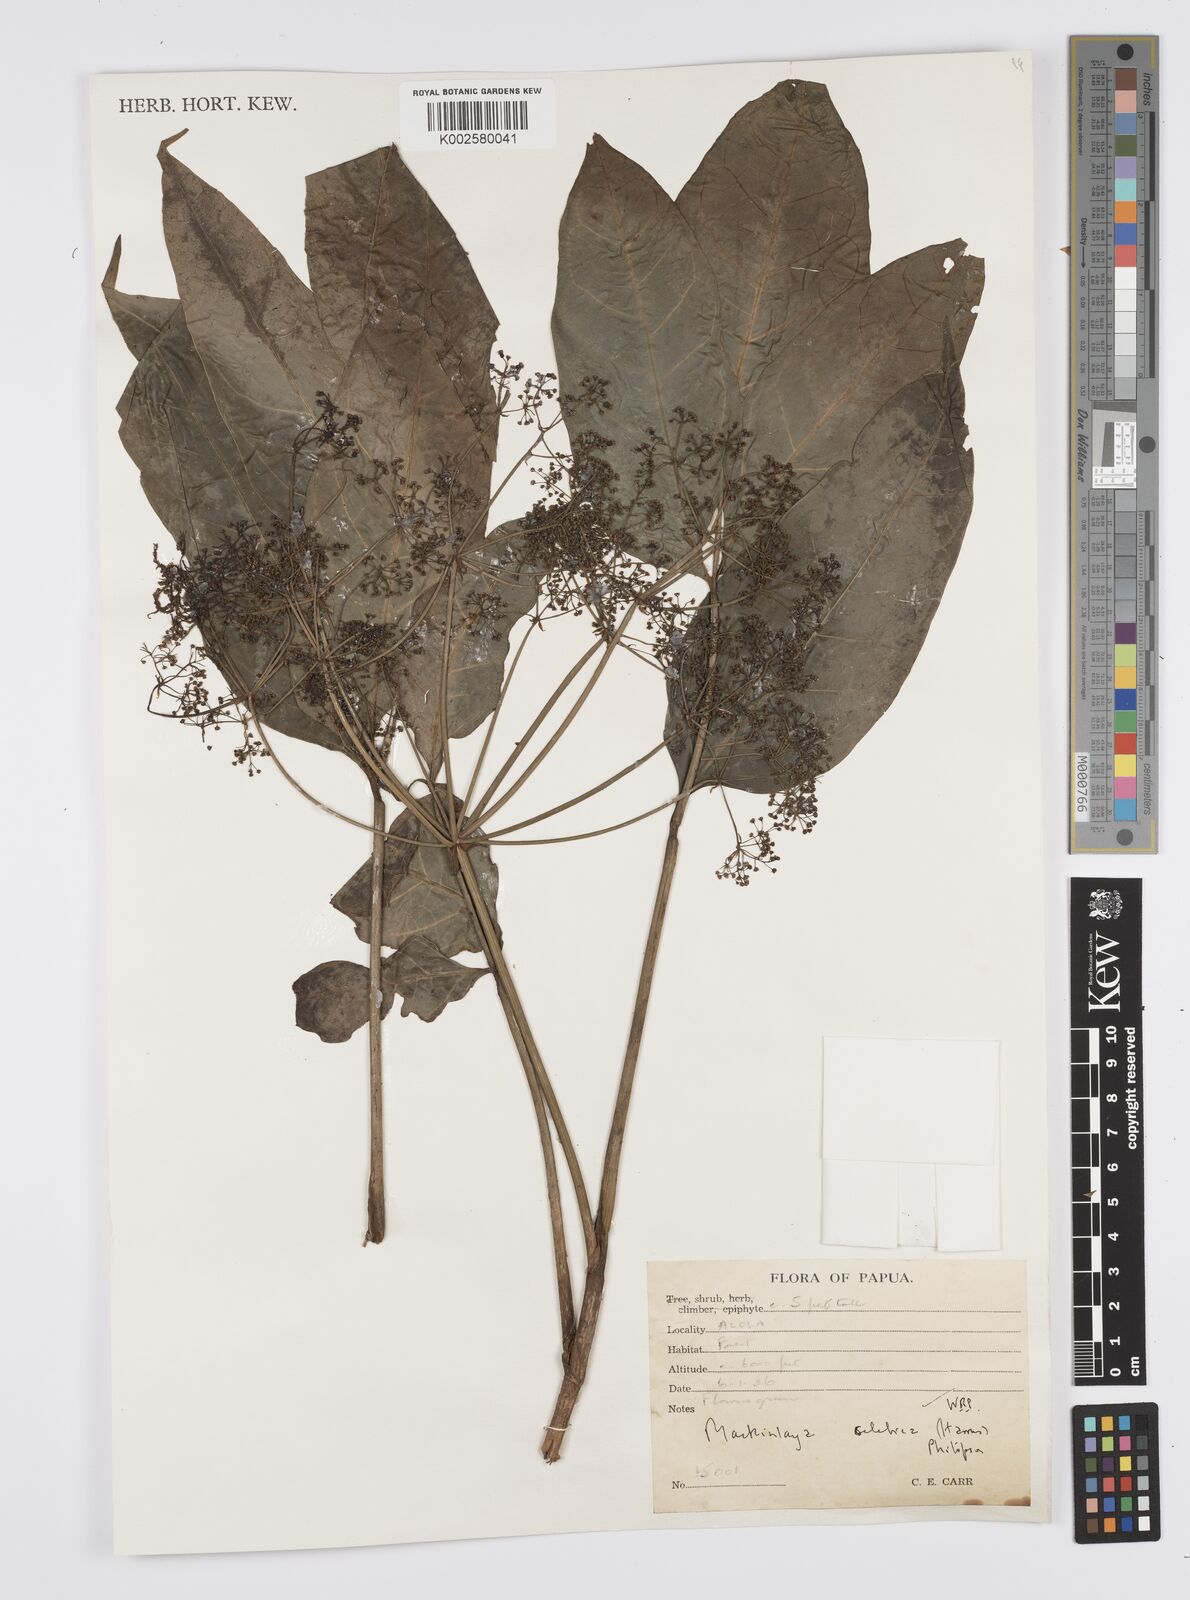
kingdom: Plantae
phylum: Tracheophyta
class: Magnoliopsida
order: Apiales
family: Apiaceae
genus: Mackinlaya
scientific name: Mackinlaya celebica
